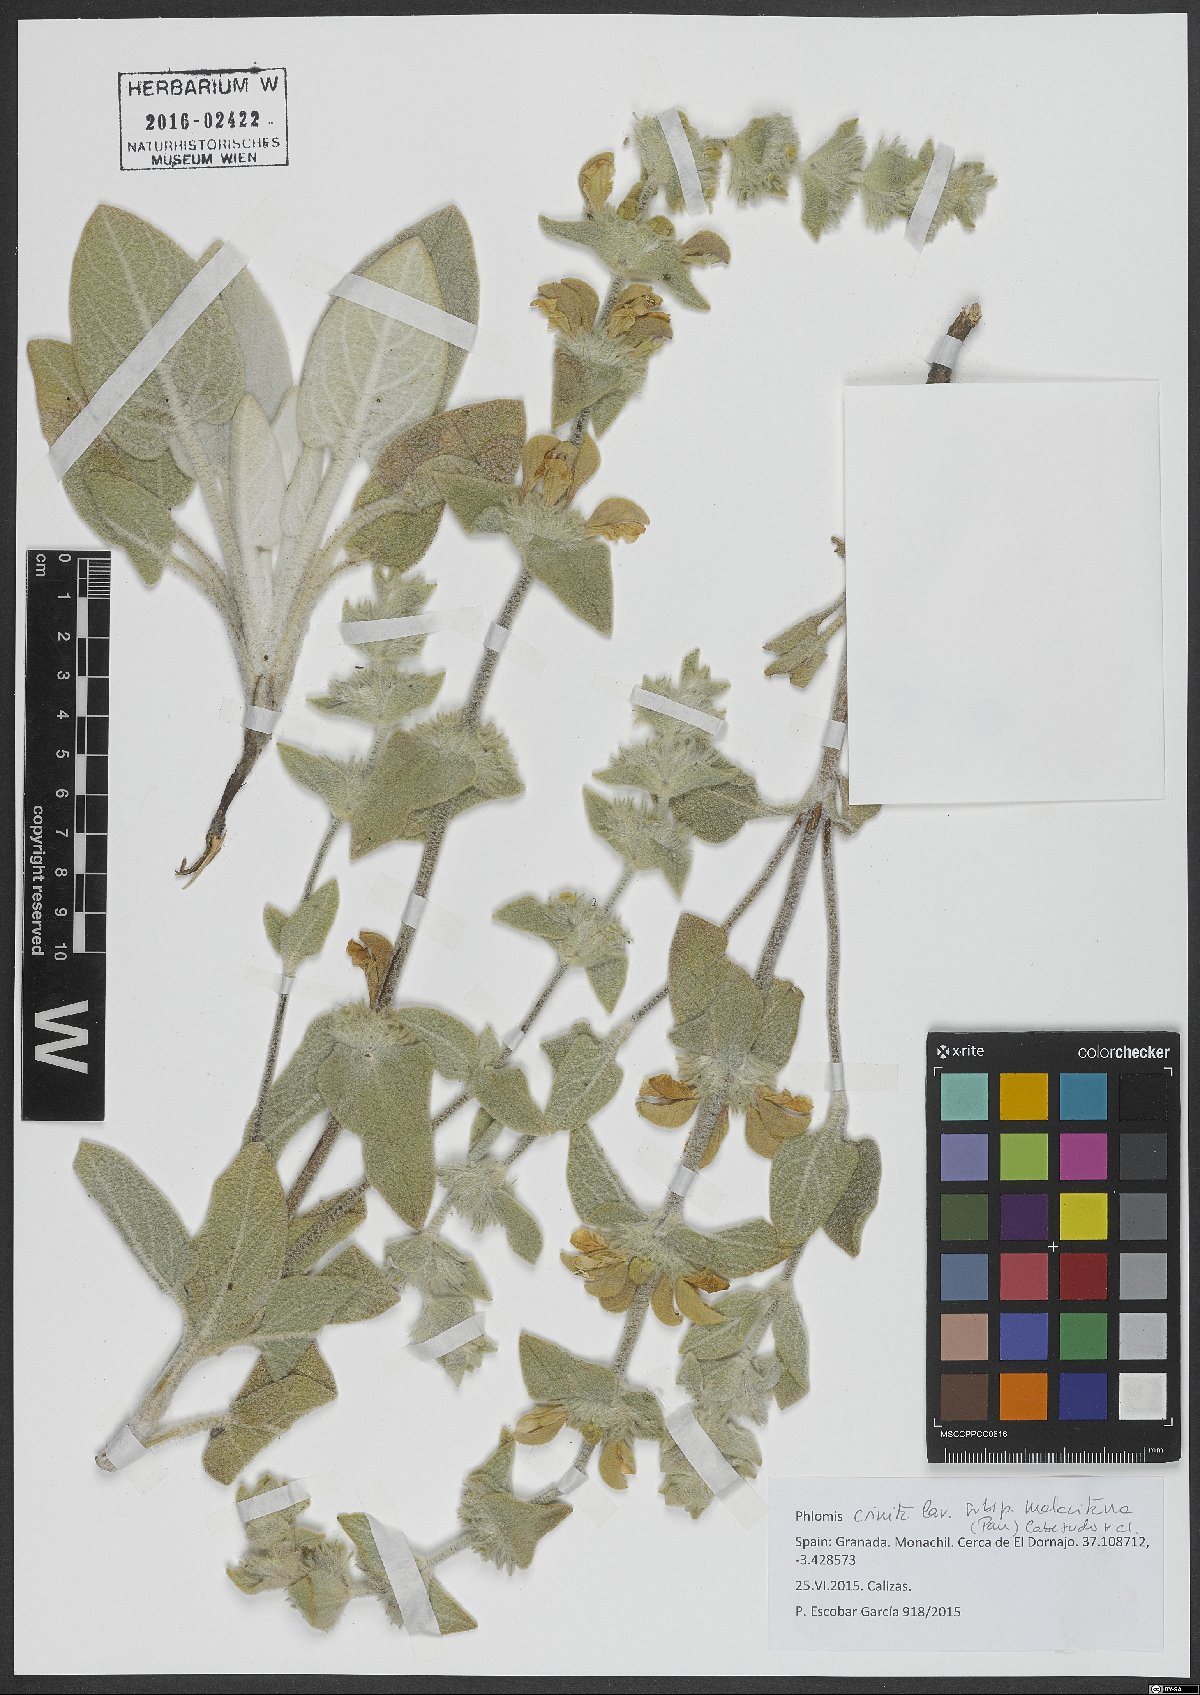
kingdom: Plantae
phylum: Tracheophyta
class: Magnoliopsida
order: Lamiales
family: Lamiaceae
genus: Phlomis
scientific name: Phlomis crinita
